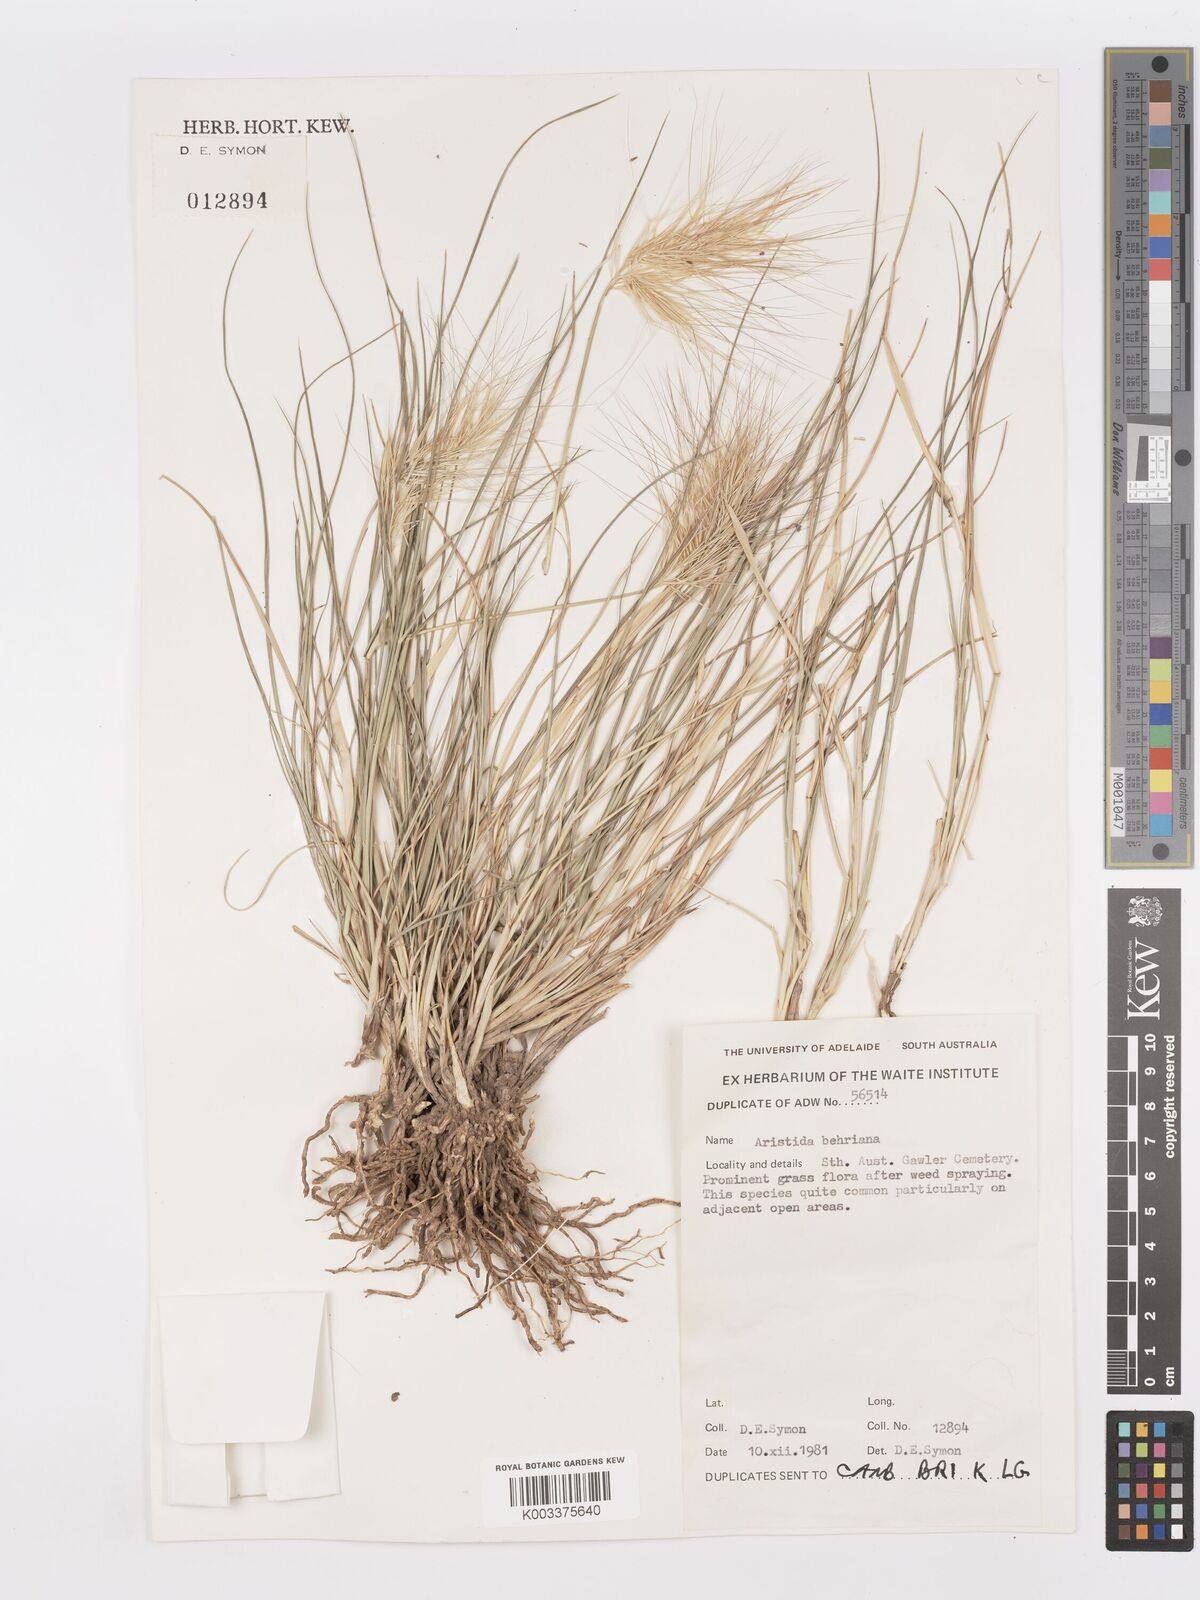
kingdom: Plantae
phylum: Tracheophyta
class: Liliopsida
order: Poales
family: Poaceae
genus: Aristida
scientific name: Aristida behriana
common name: Long-awn wire grass
